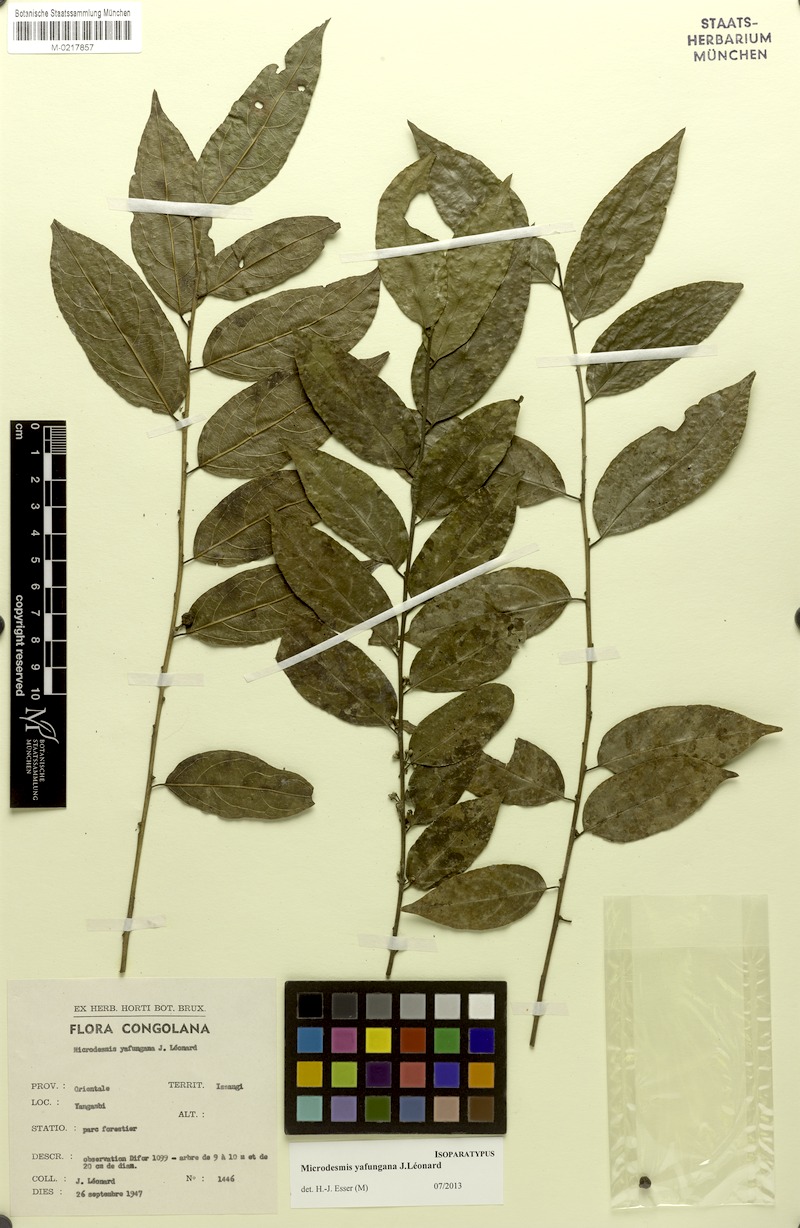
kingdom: Plantae
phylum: Tracheophyta
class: Magnoliopsida
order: Malpighiales
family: Pandaceae
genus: Microdesmis
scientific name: Microdesmis yafungana
